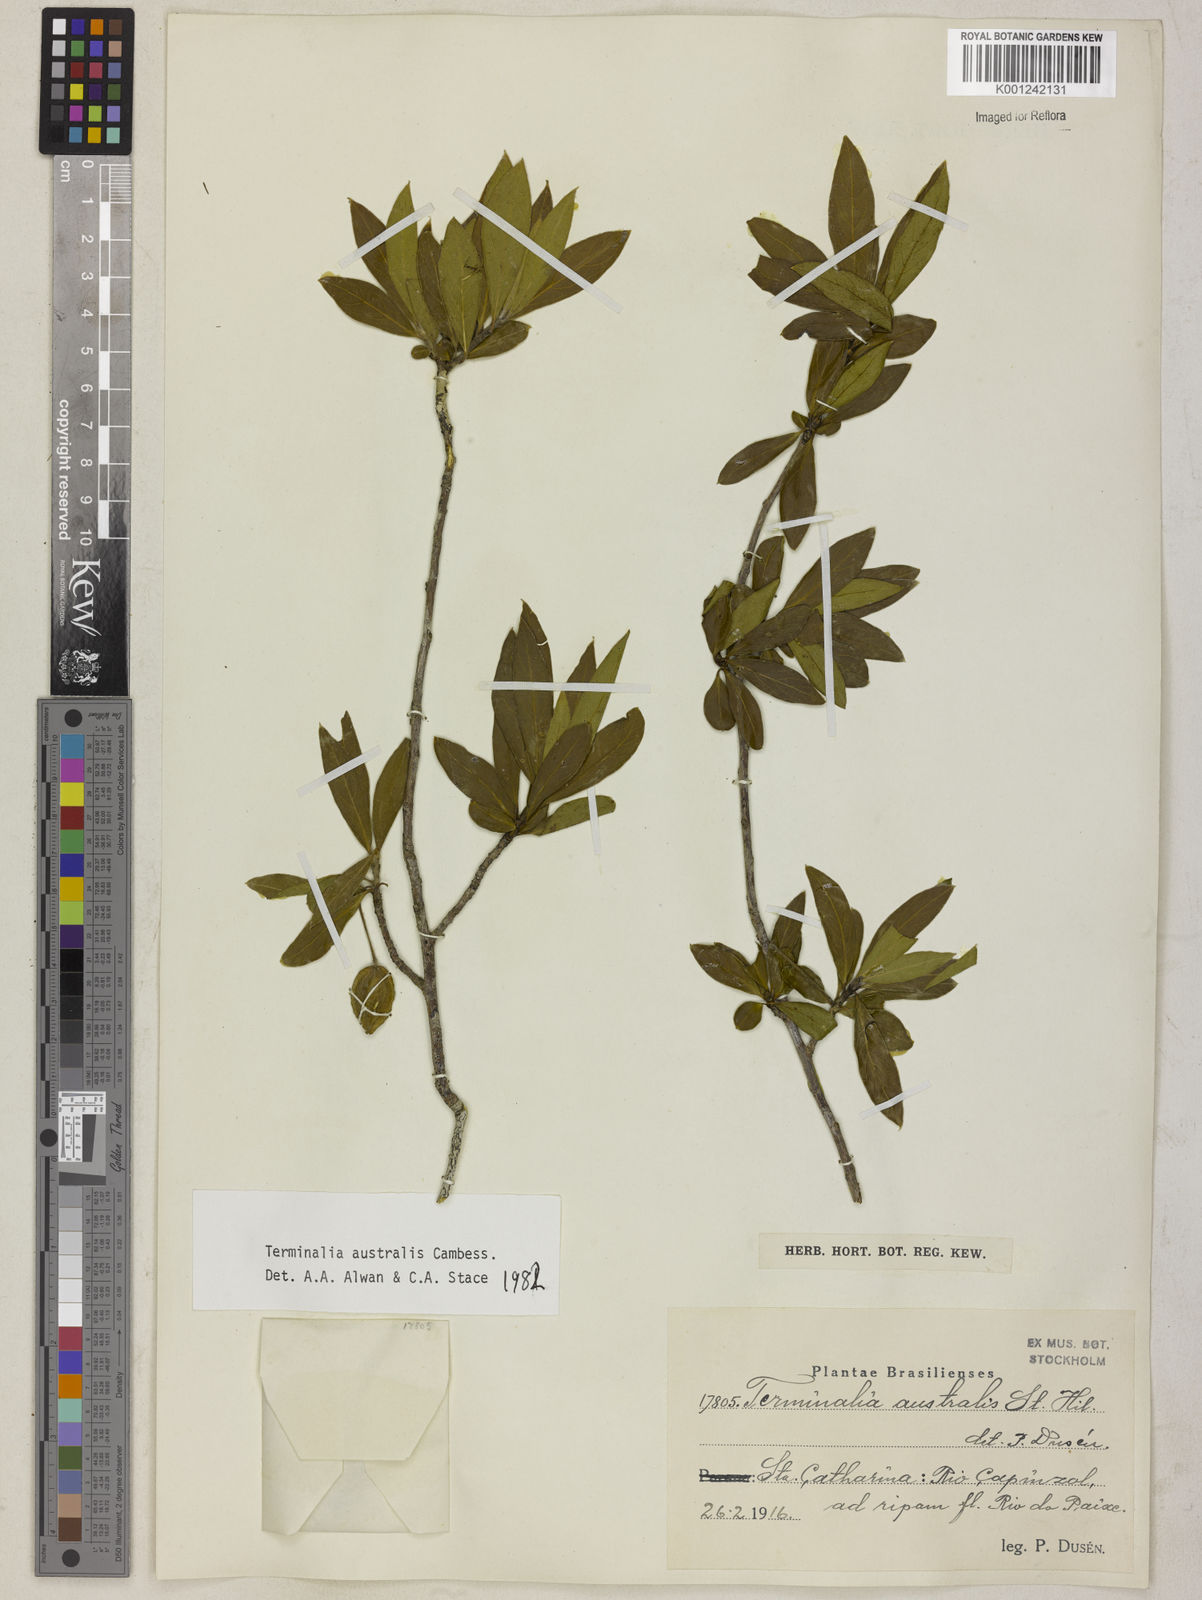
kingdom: Plantae
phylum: Tracheophyta
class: Magnoliopsida
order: Myrtales
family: Combretaceae
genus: Terminalia
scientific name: Terminalia australis
